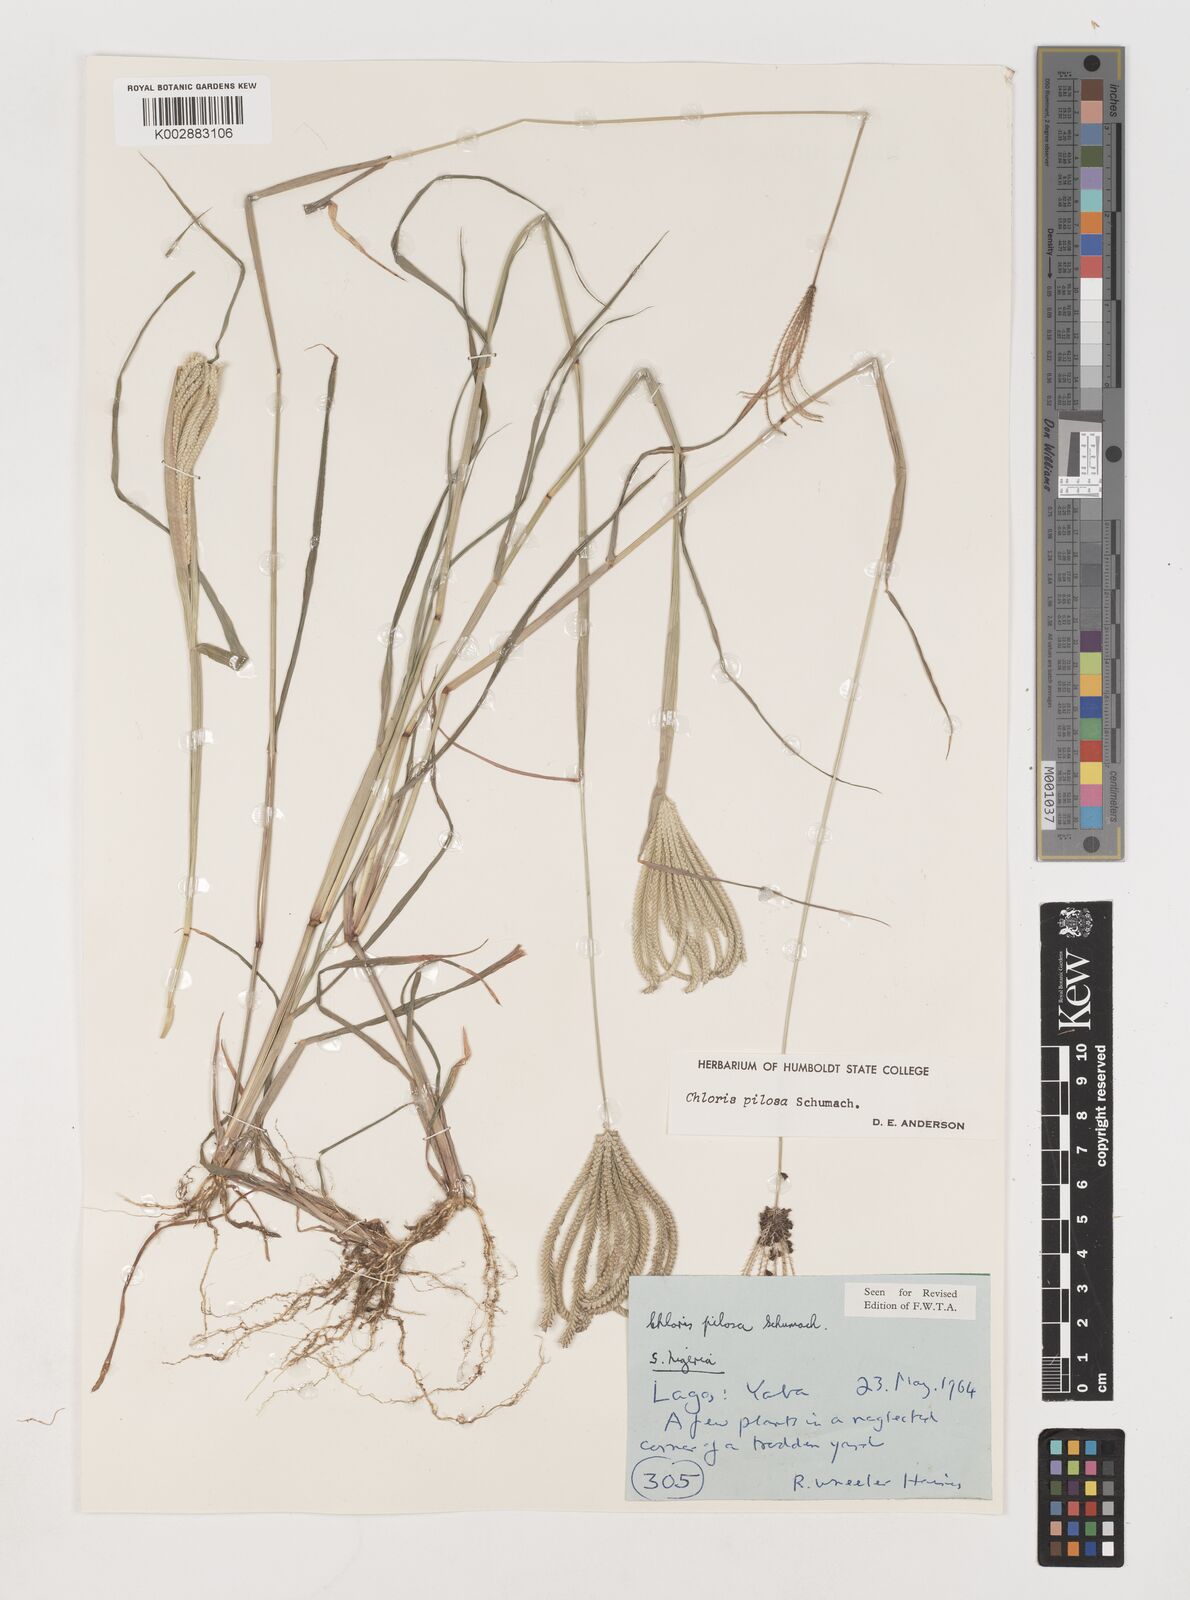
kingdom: Plantae
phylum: Tracheophyta
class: Liliopsida
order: Poales
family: Poaceae
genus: Chloris
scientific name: Chloris pilosa
